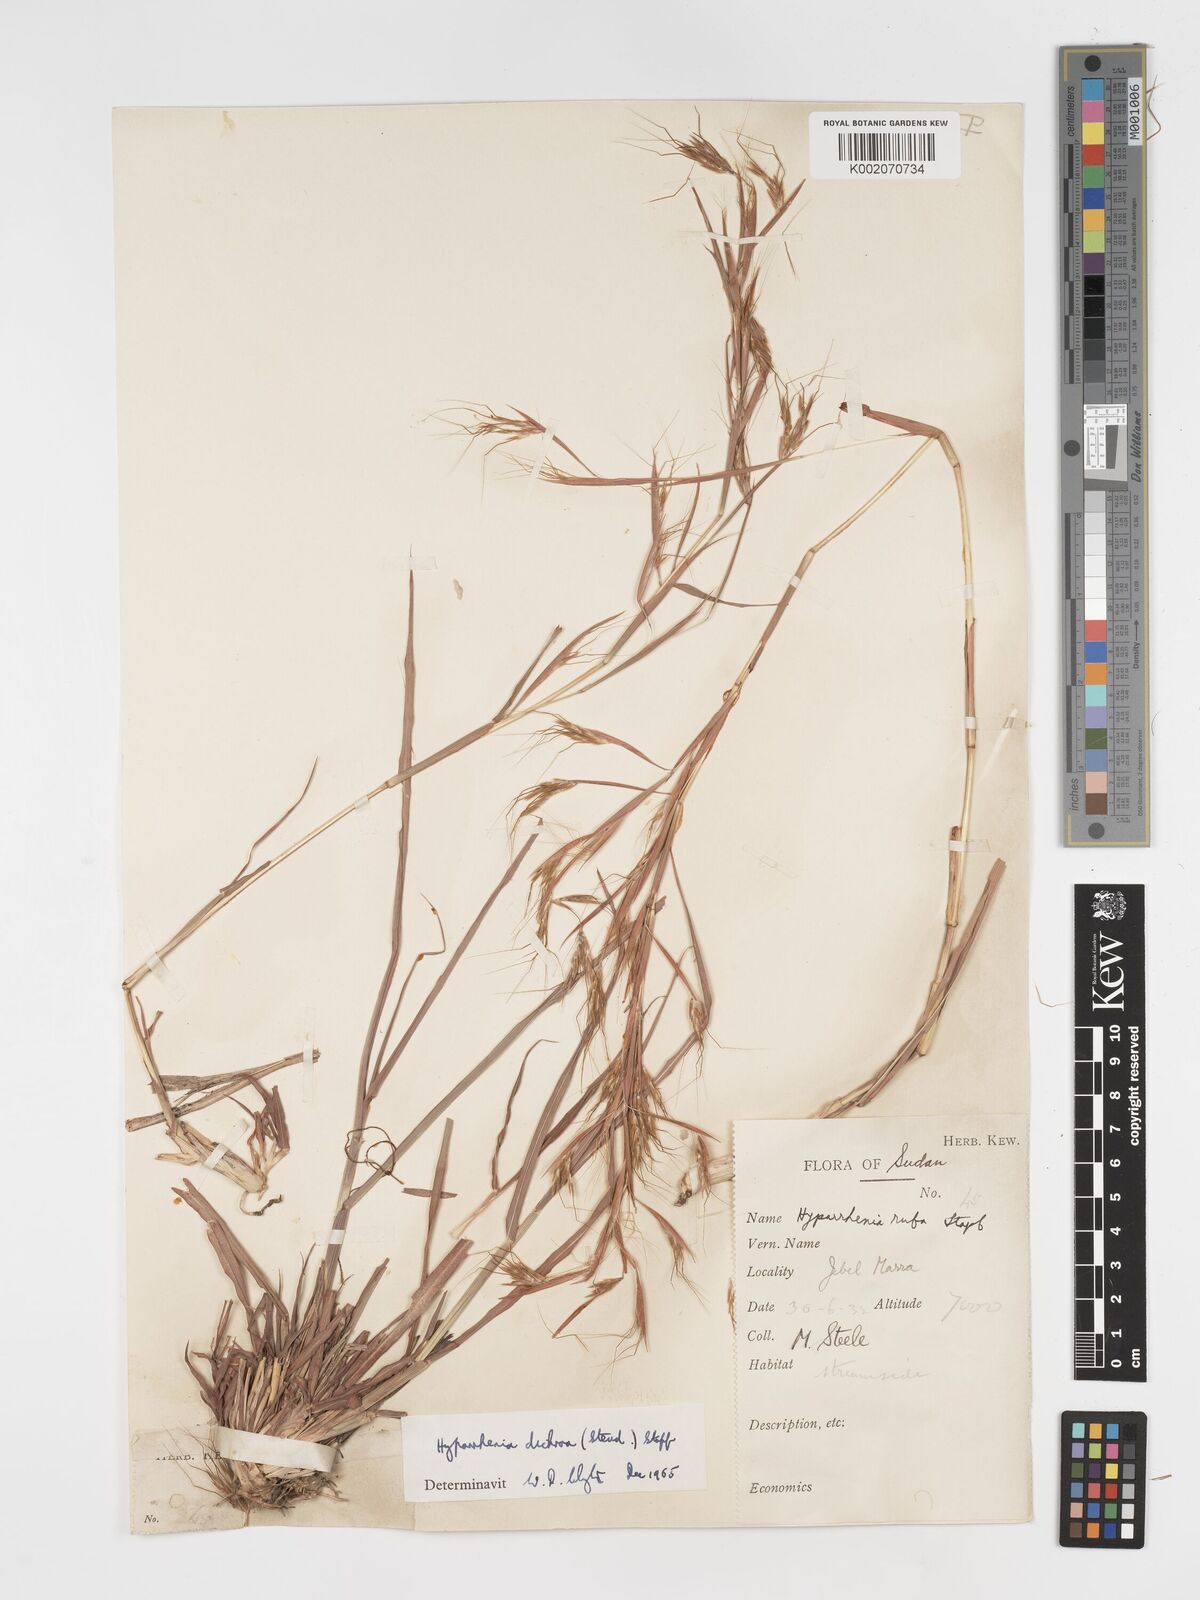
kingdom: Plantae
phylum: Tracheophyta
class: Liliopsida
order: Poales
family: Poaceae
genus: Hyparrhenia
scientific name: Hyparrhenia dichroa
